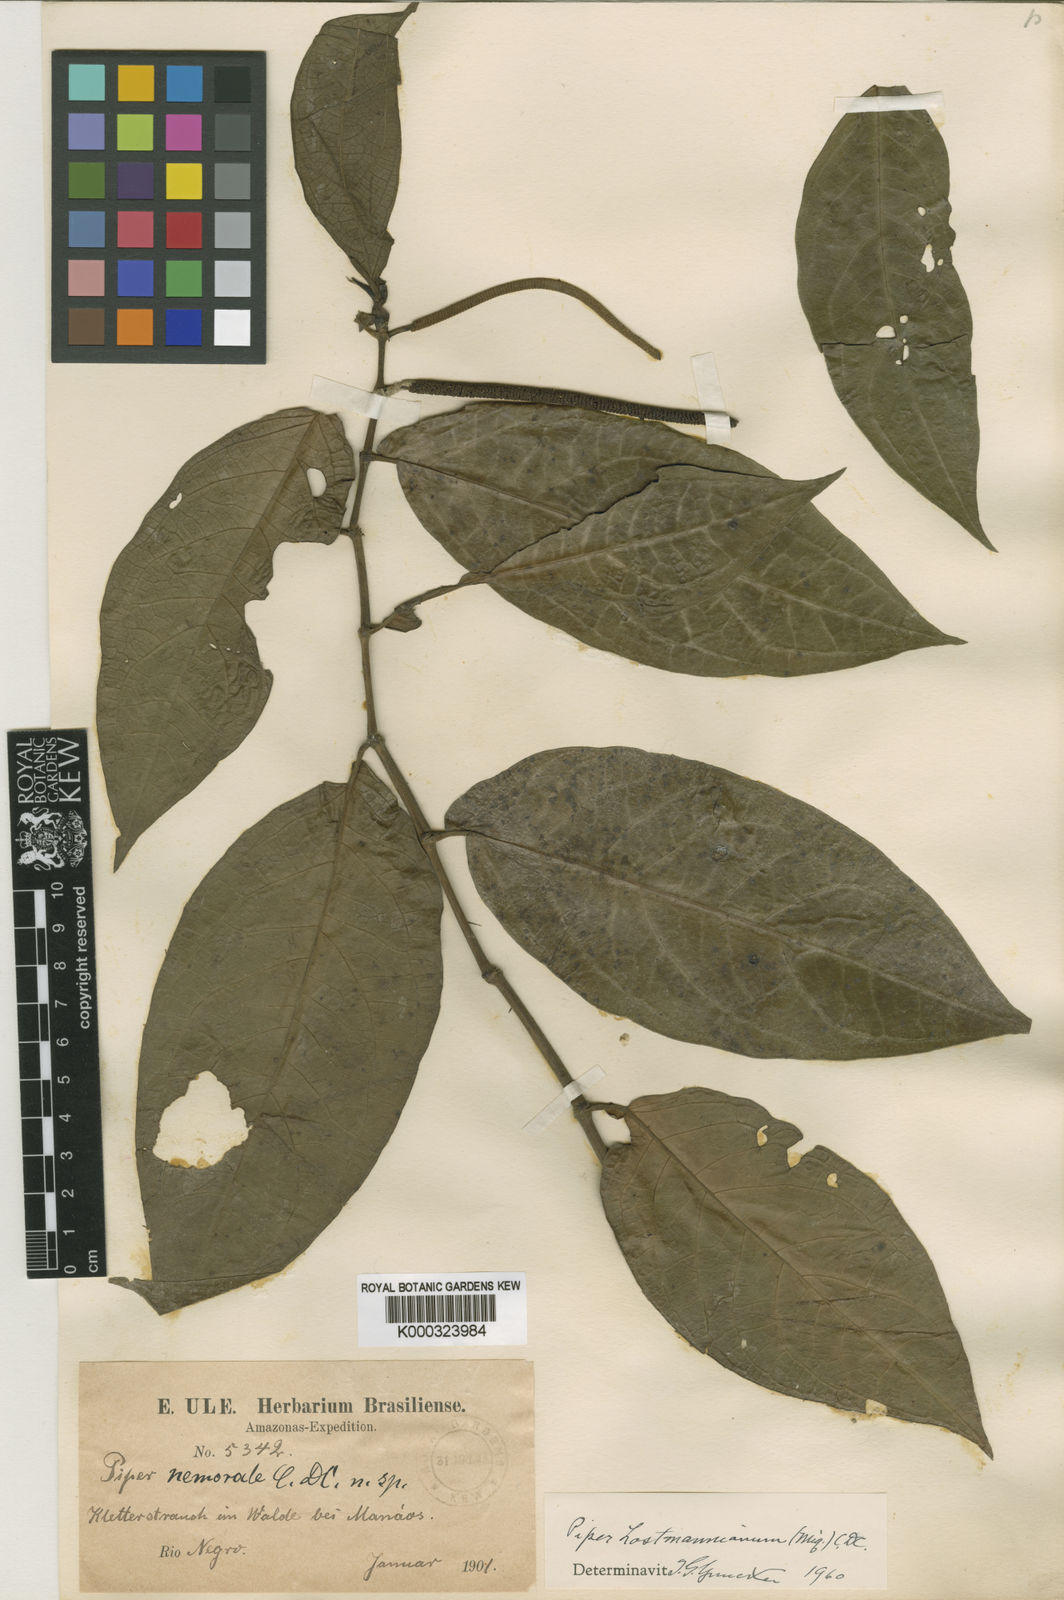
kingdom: Plantae
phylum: Tracheophyta
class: Magnoliopsida
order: Piperales
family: Piperaceae
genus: Piper
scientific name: Piper hostmannianum
